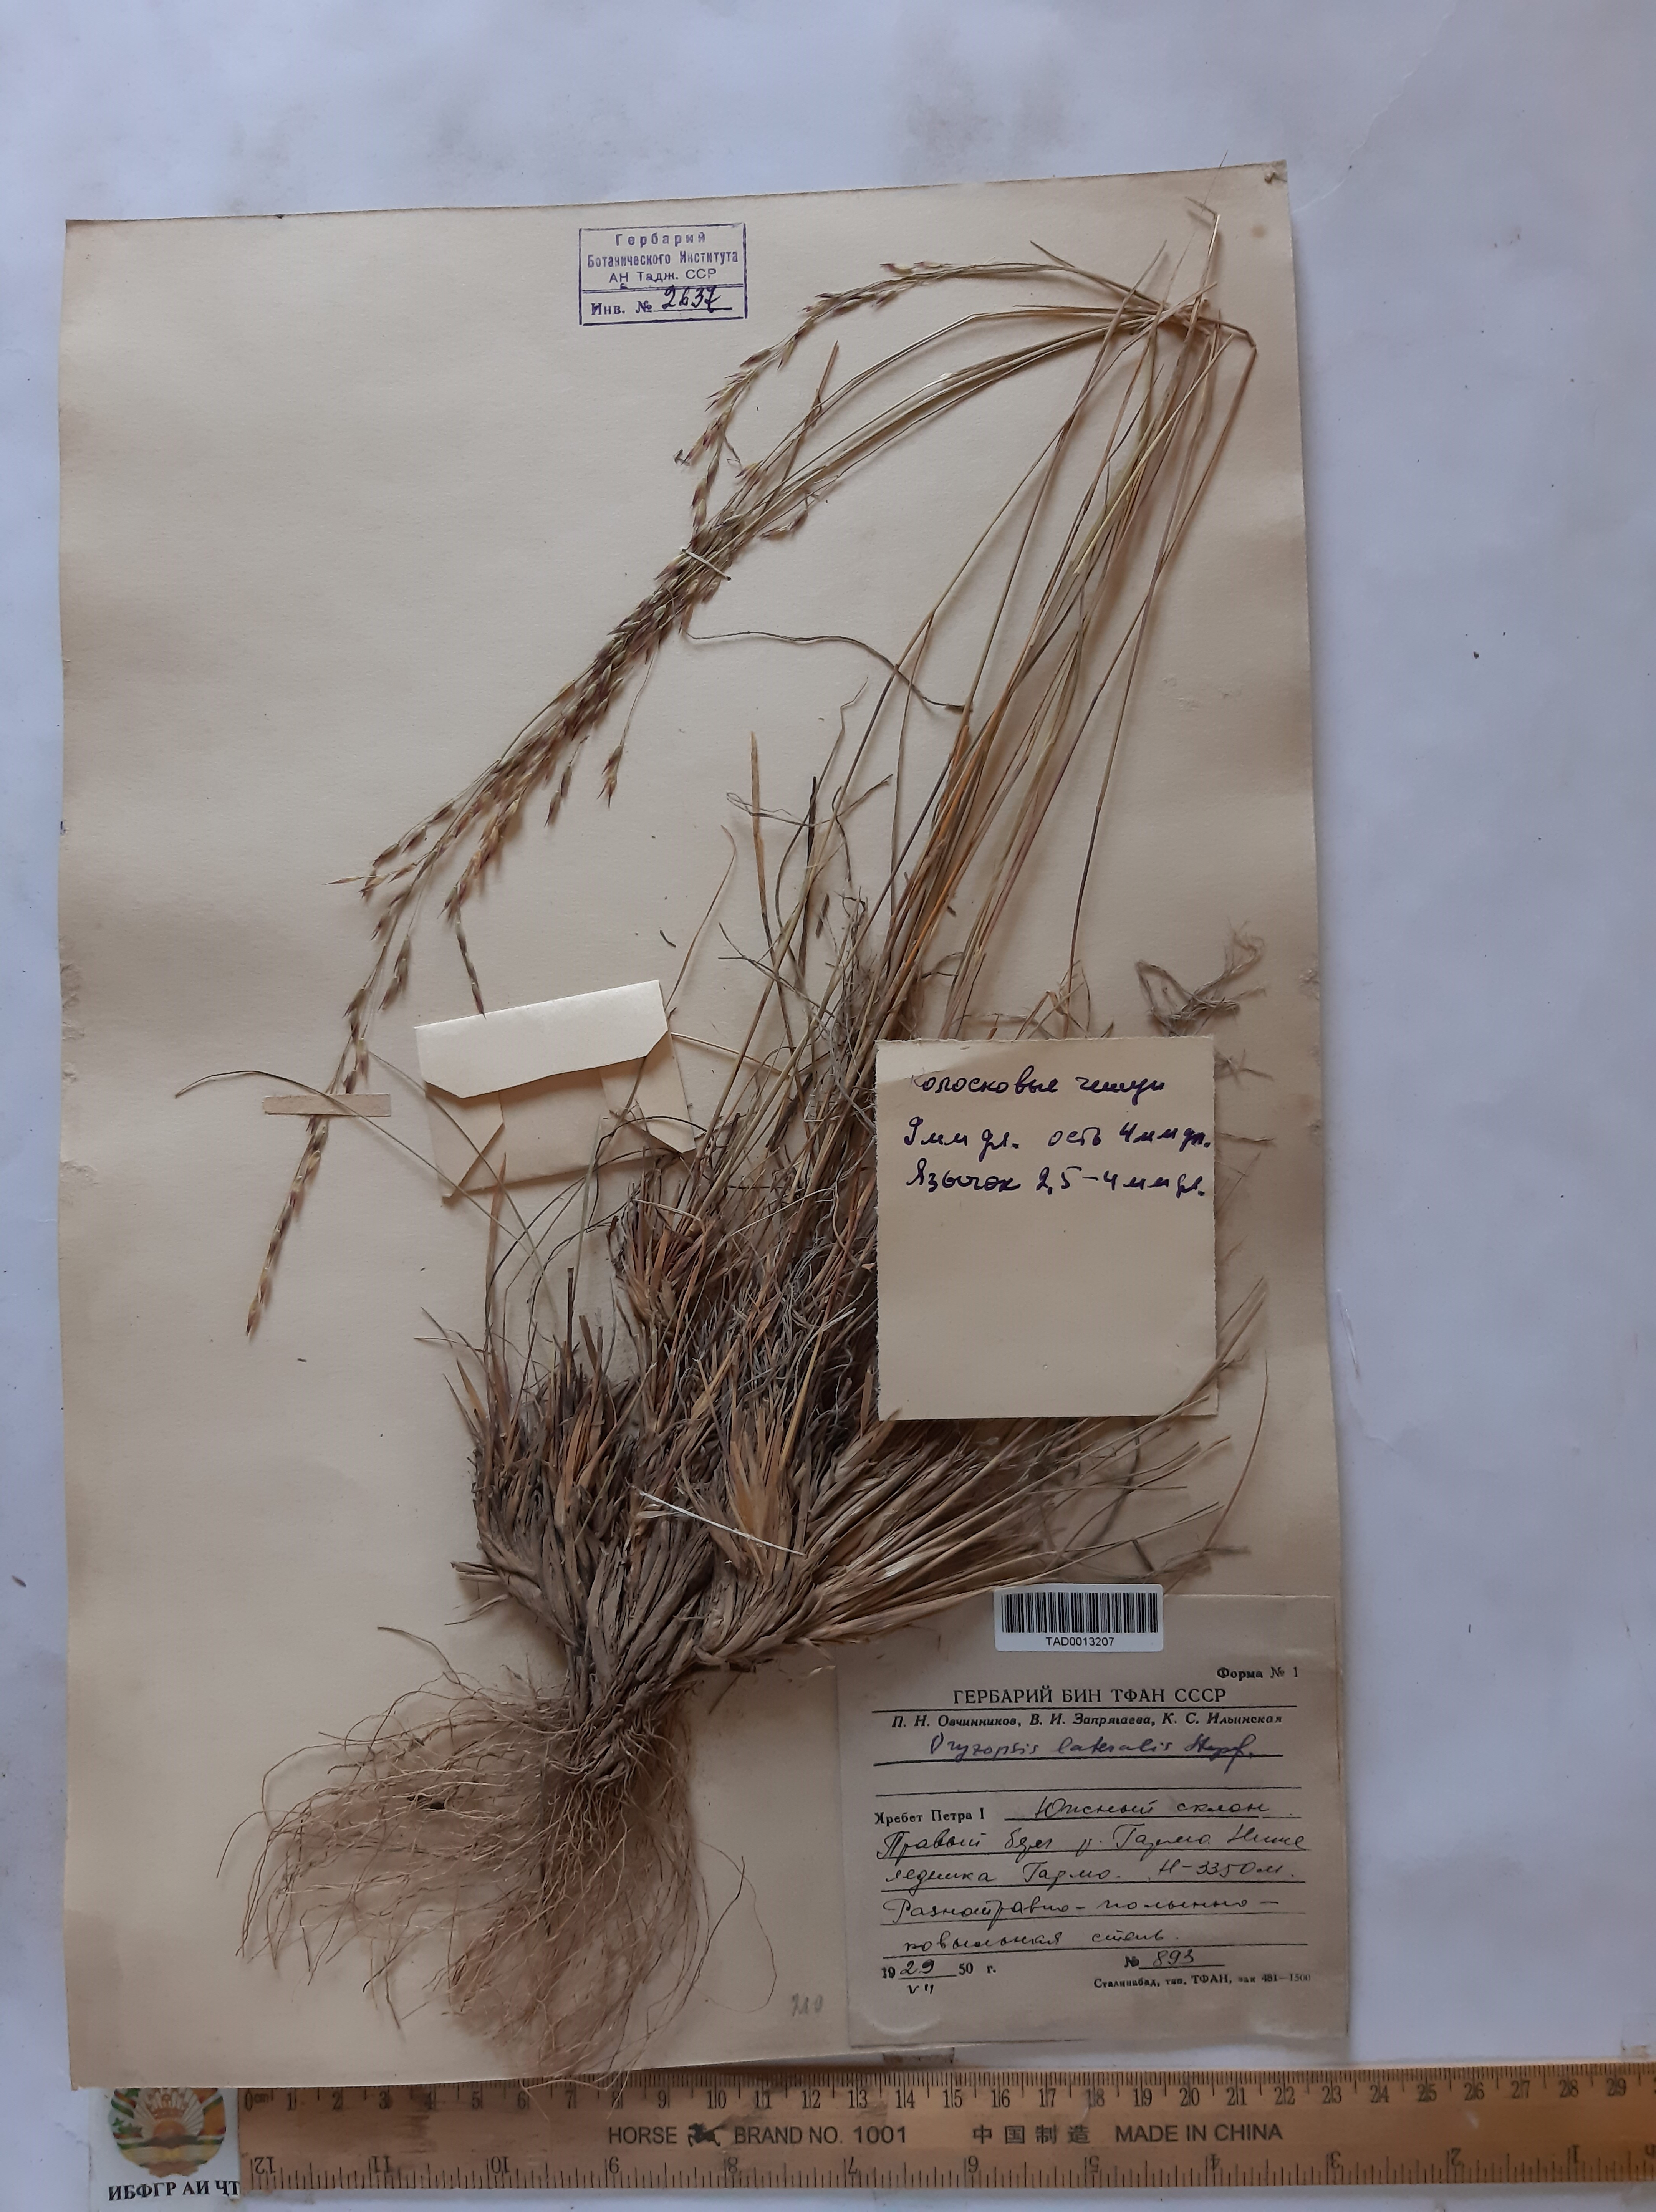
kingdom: Plantae
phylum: Tracheophyta
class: Liliopsida
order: Poales
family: Poaceae
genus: Piptatherum
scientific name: Piptatherum laterale
